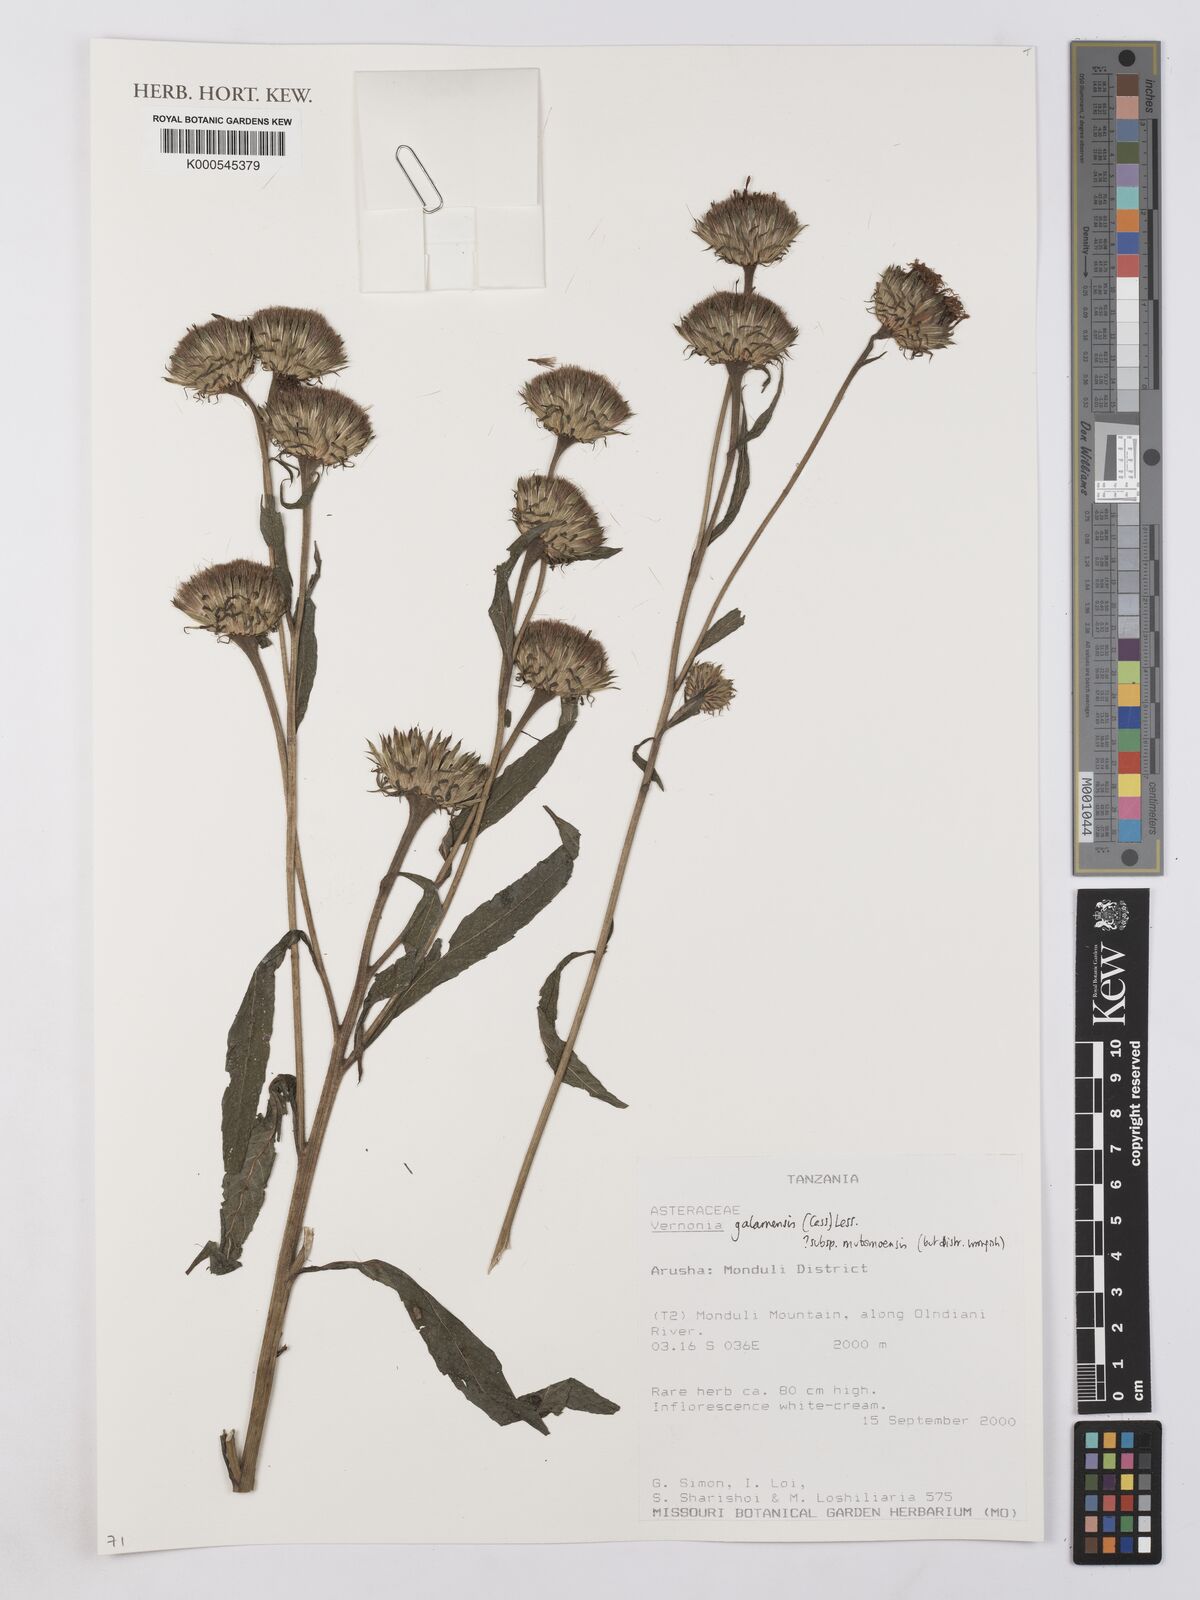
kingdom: Plantae
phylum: Tracheophyta
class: Magnoliopsida
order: Asterales
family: Asteraceae
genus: Vernonia
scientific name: Vernonia galamensis
